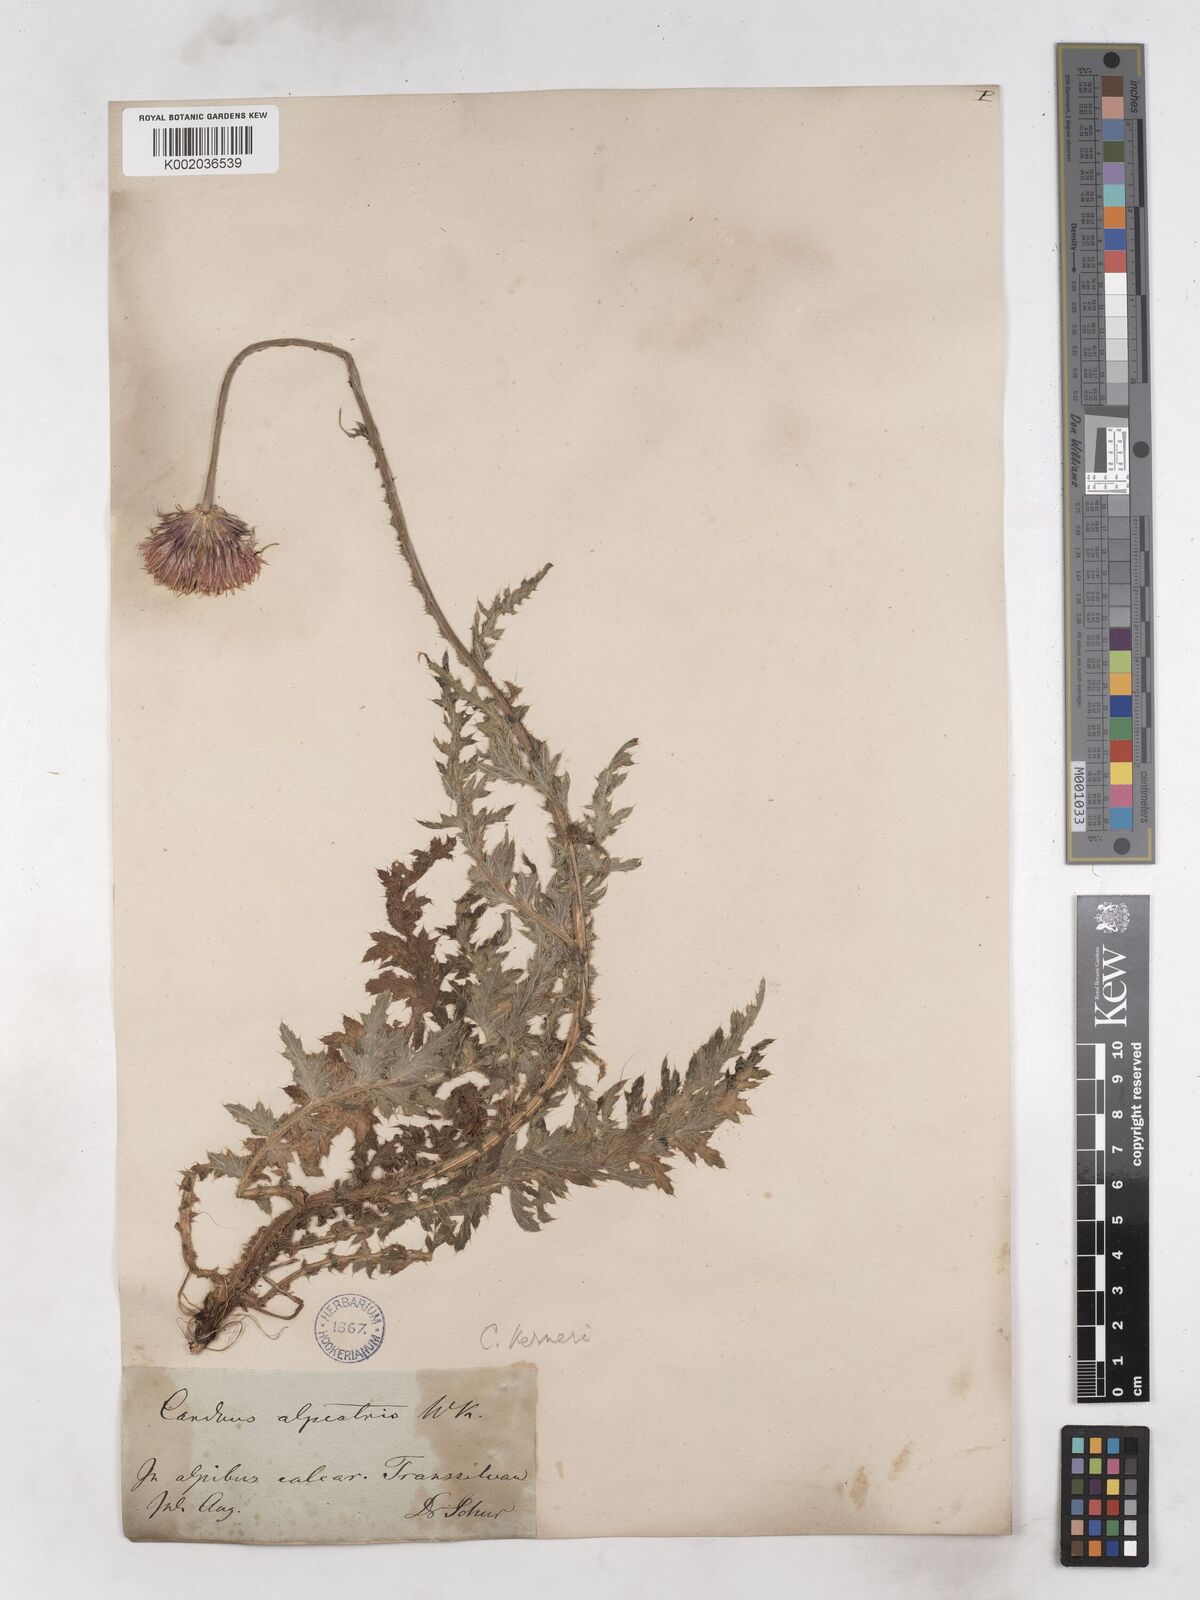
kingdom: Plantae
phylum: Tracheophyta
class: Magnoliopsida
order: Asterales
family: Asteraceae
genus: Carduus
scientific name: Carduus kerneri
